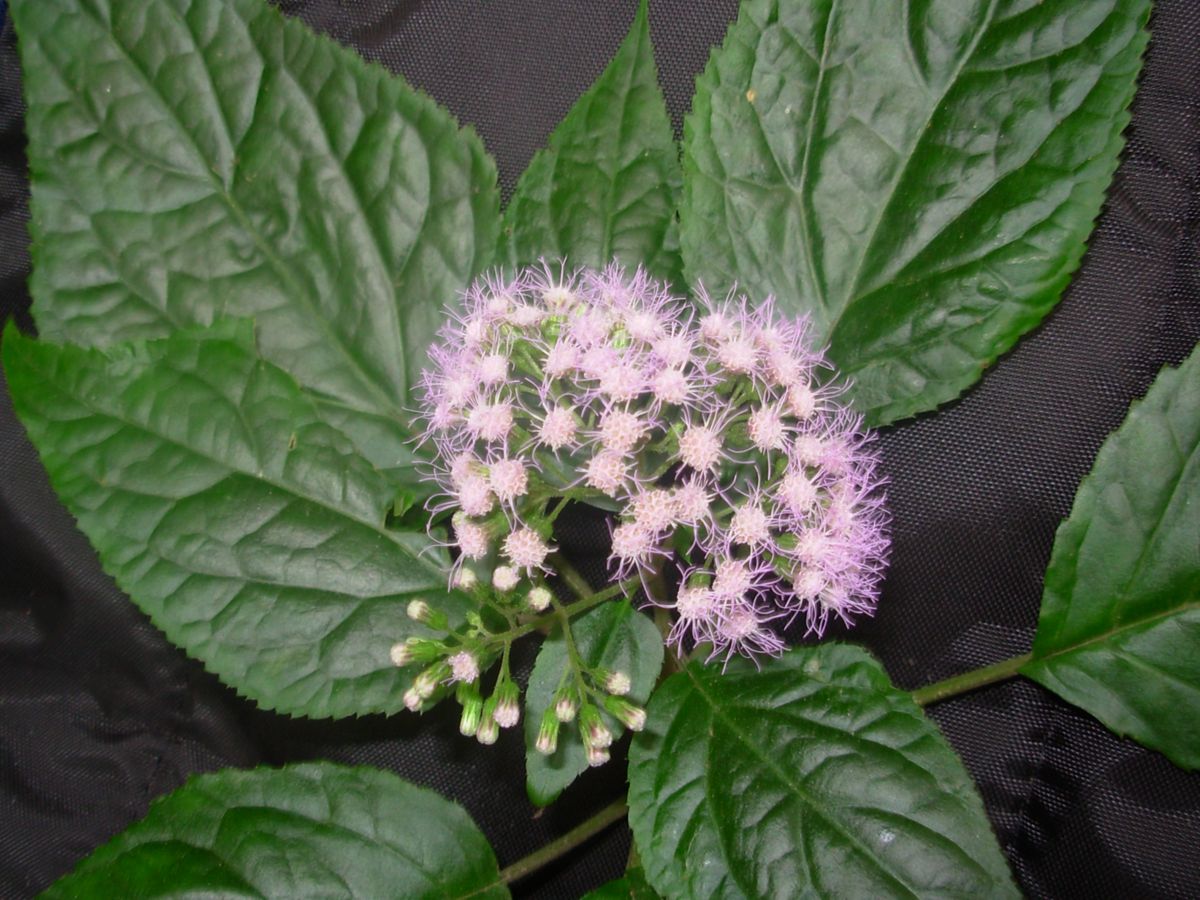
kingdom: Plantae
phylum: Tracheophyta
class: Magnoliopsida
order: Asterales
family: Asteraceae
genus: Bartlettina
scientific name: Bartlettina pansamalensis
